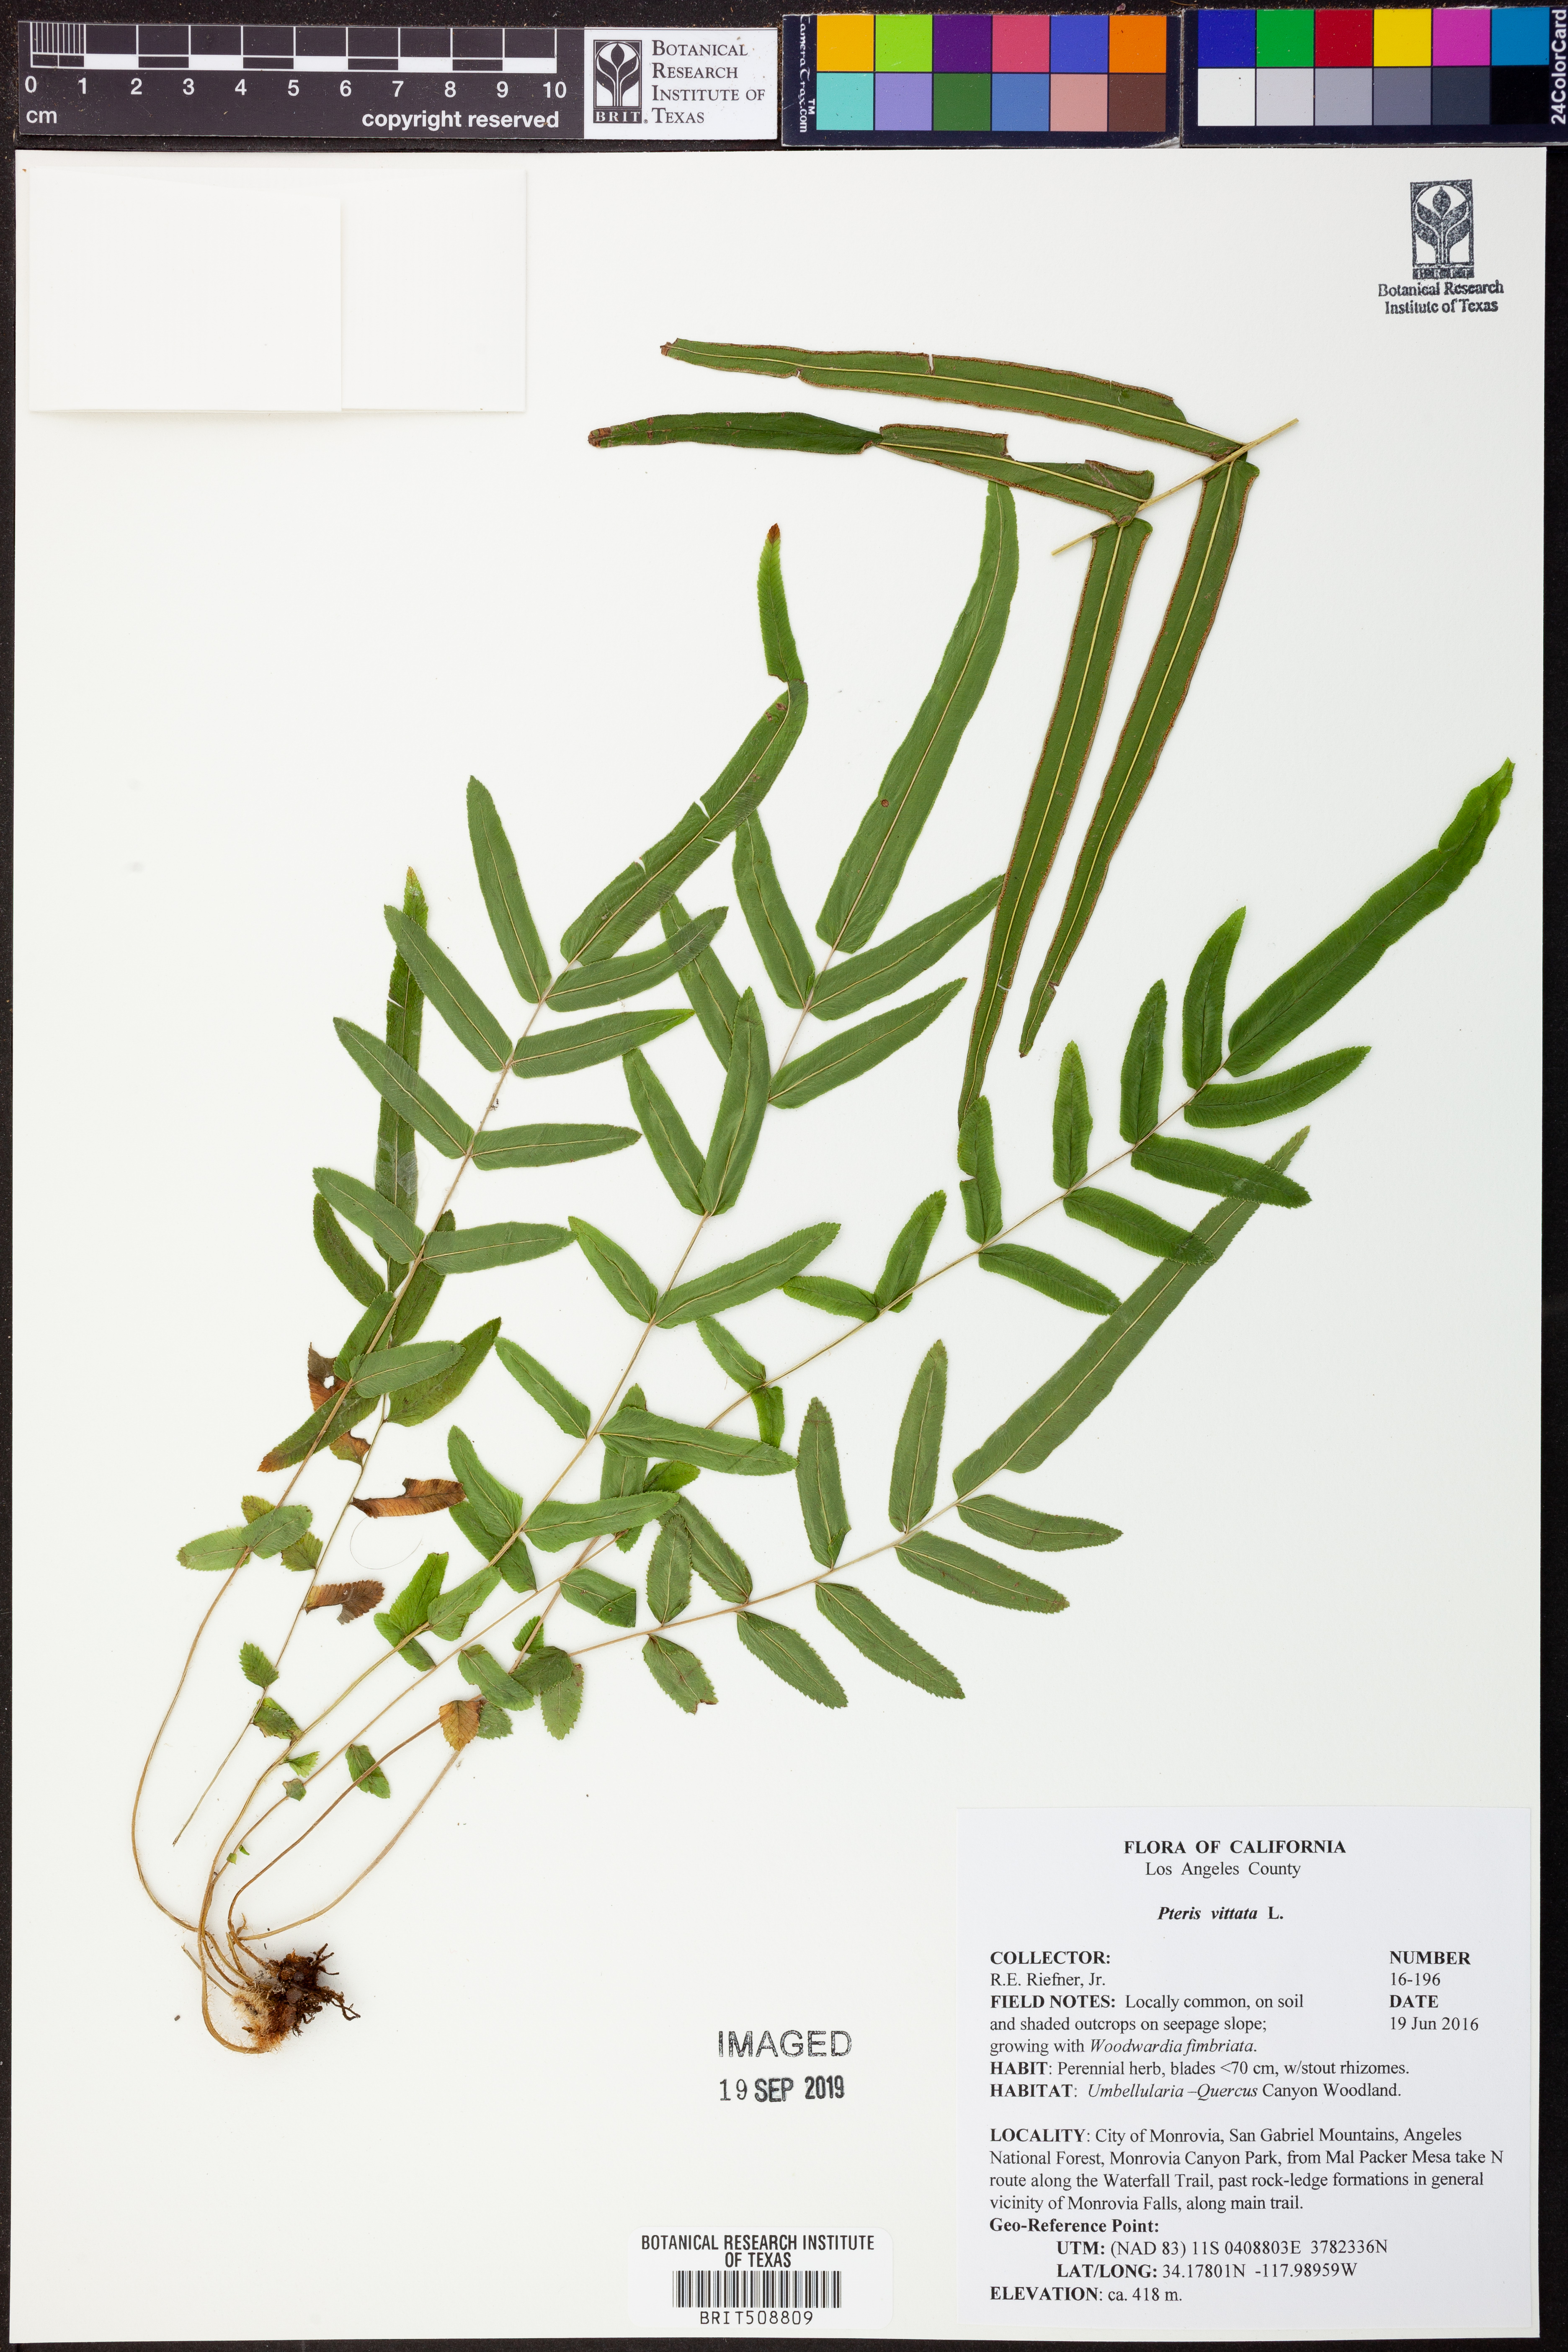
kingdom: Plantae
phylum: Tracheophyta
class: Polypodiopsida
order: Polypodiales
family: Pteridaceae
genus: Pteris
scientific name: Pteris vittata
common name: Ladder brake
